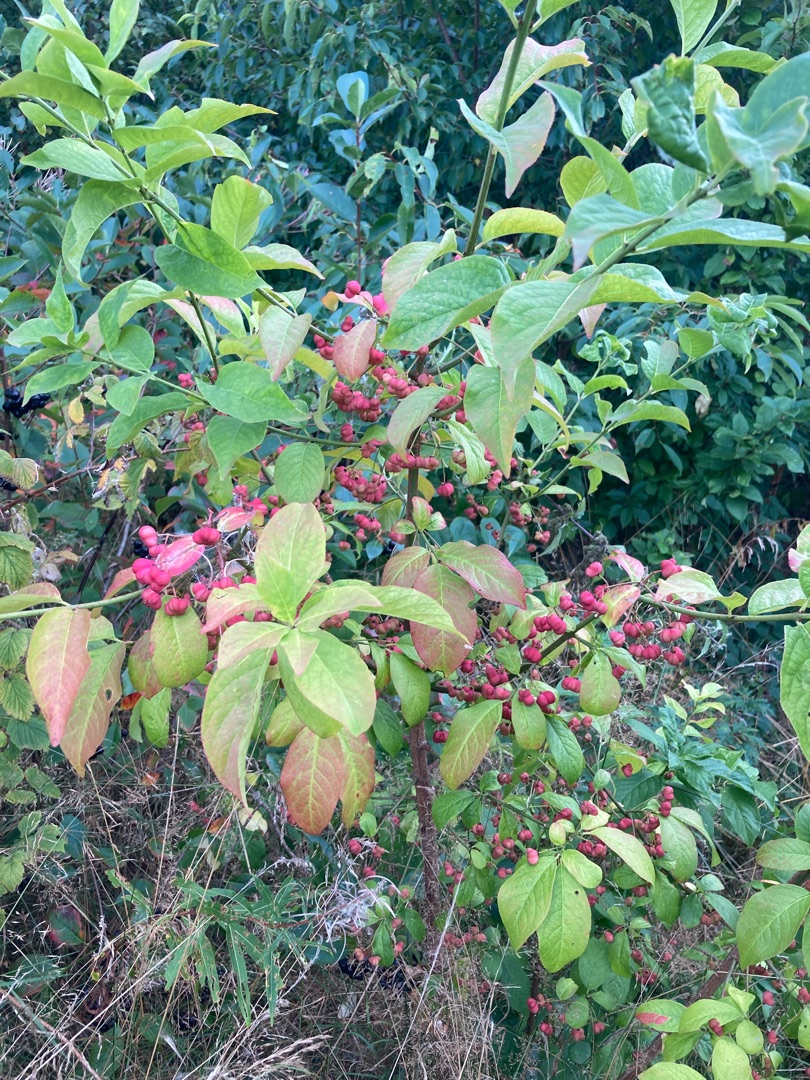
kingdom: Plantae
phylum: Tracheophyta
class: Magnoliopsida
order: Celastrales
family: Celastraceae
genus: Euonymus
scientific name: Euonymus europaeus
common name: Benved
